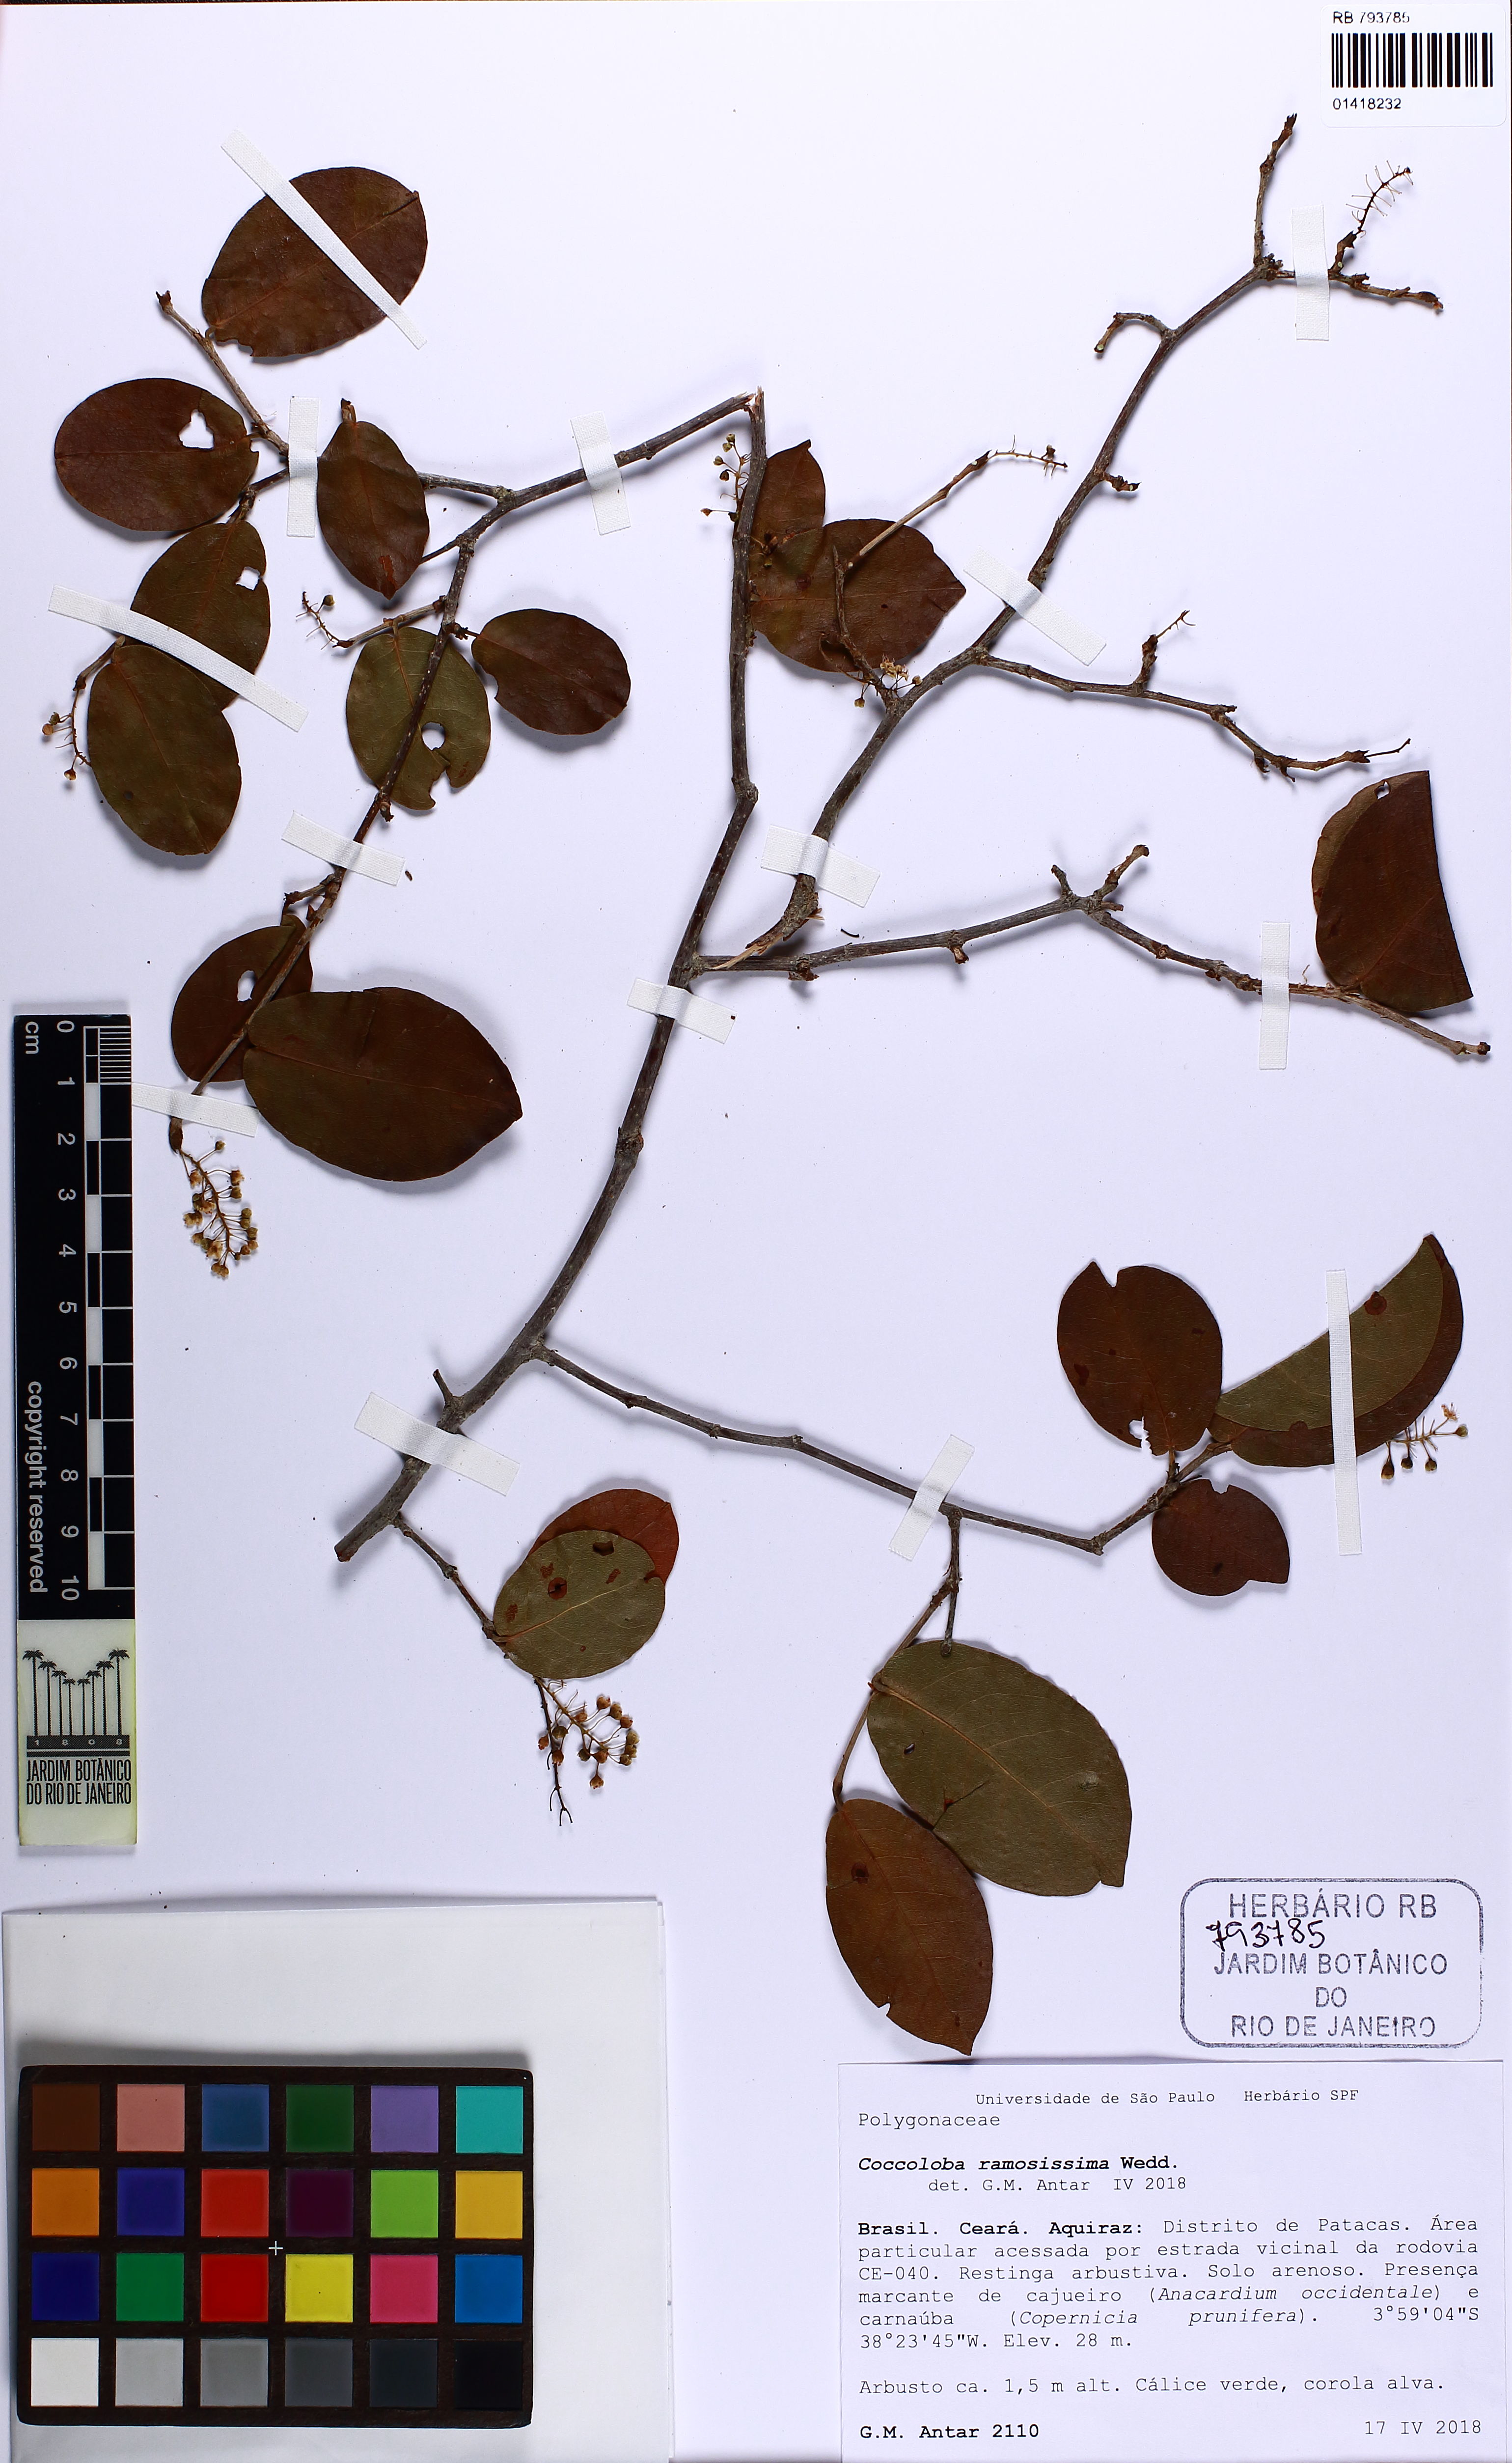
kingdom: Plantae
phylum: Tracheophyta
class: Magnoliopsida
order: Caryophyllales
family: Polygonaceae
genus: Coccoloba
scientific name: Coccoloba ramosisissima
